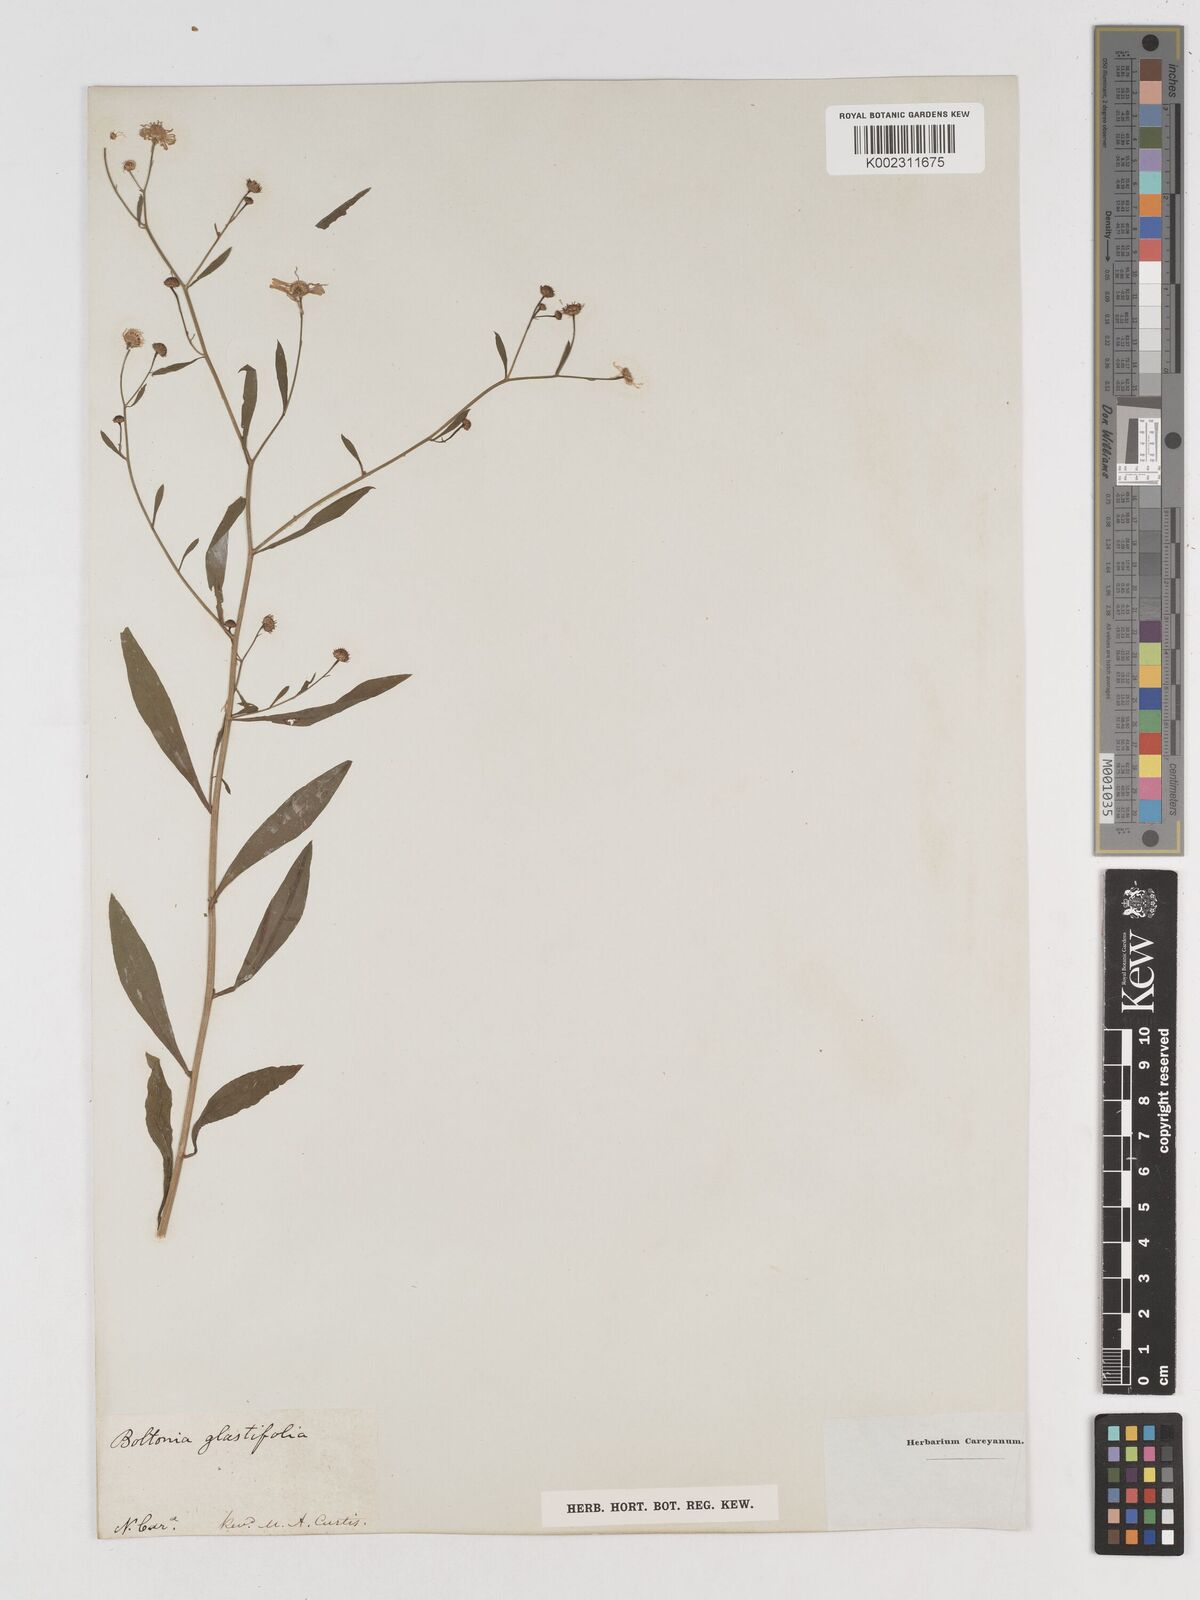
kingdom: Plantae
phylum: Tracheophyta
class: Magnoliopsida
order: Asterales
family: Asteraceae
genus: Boltonia
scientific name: Boltonia glastifolia
